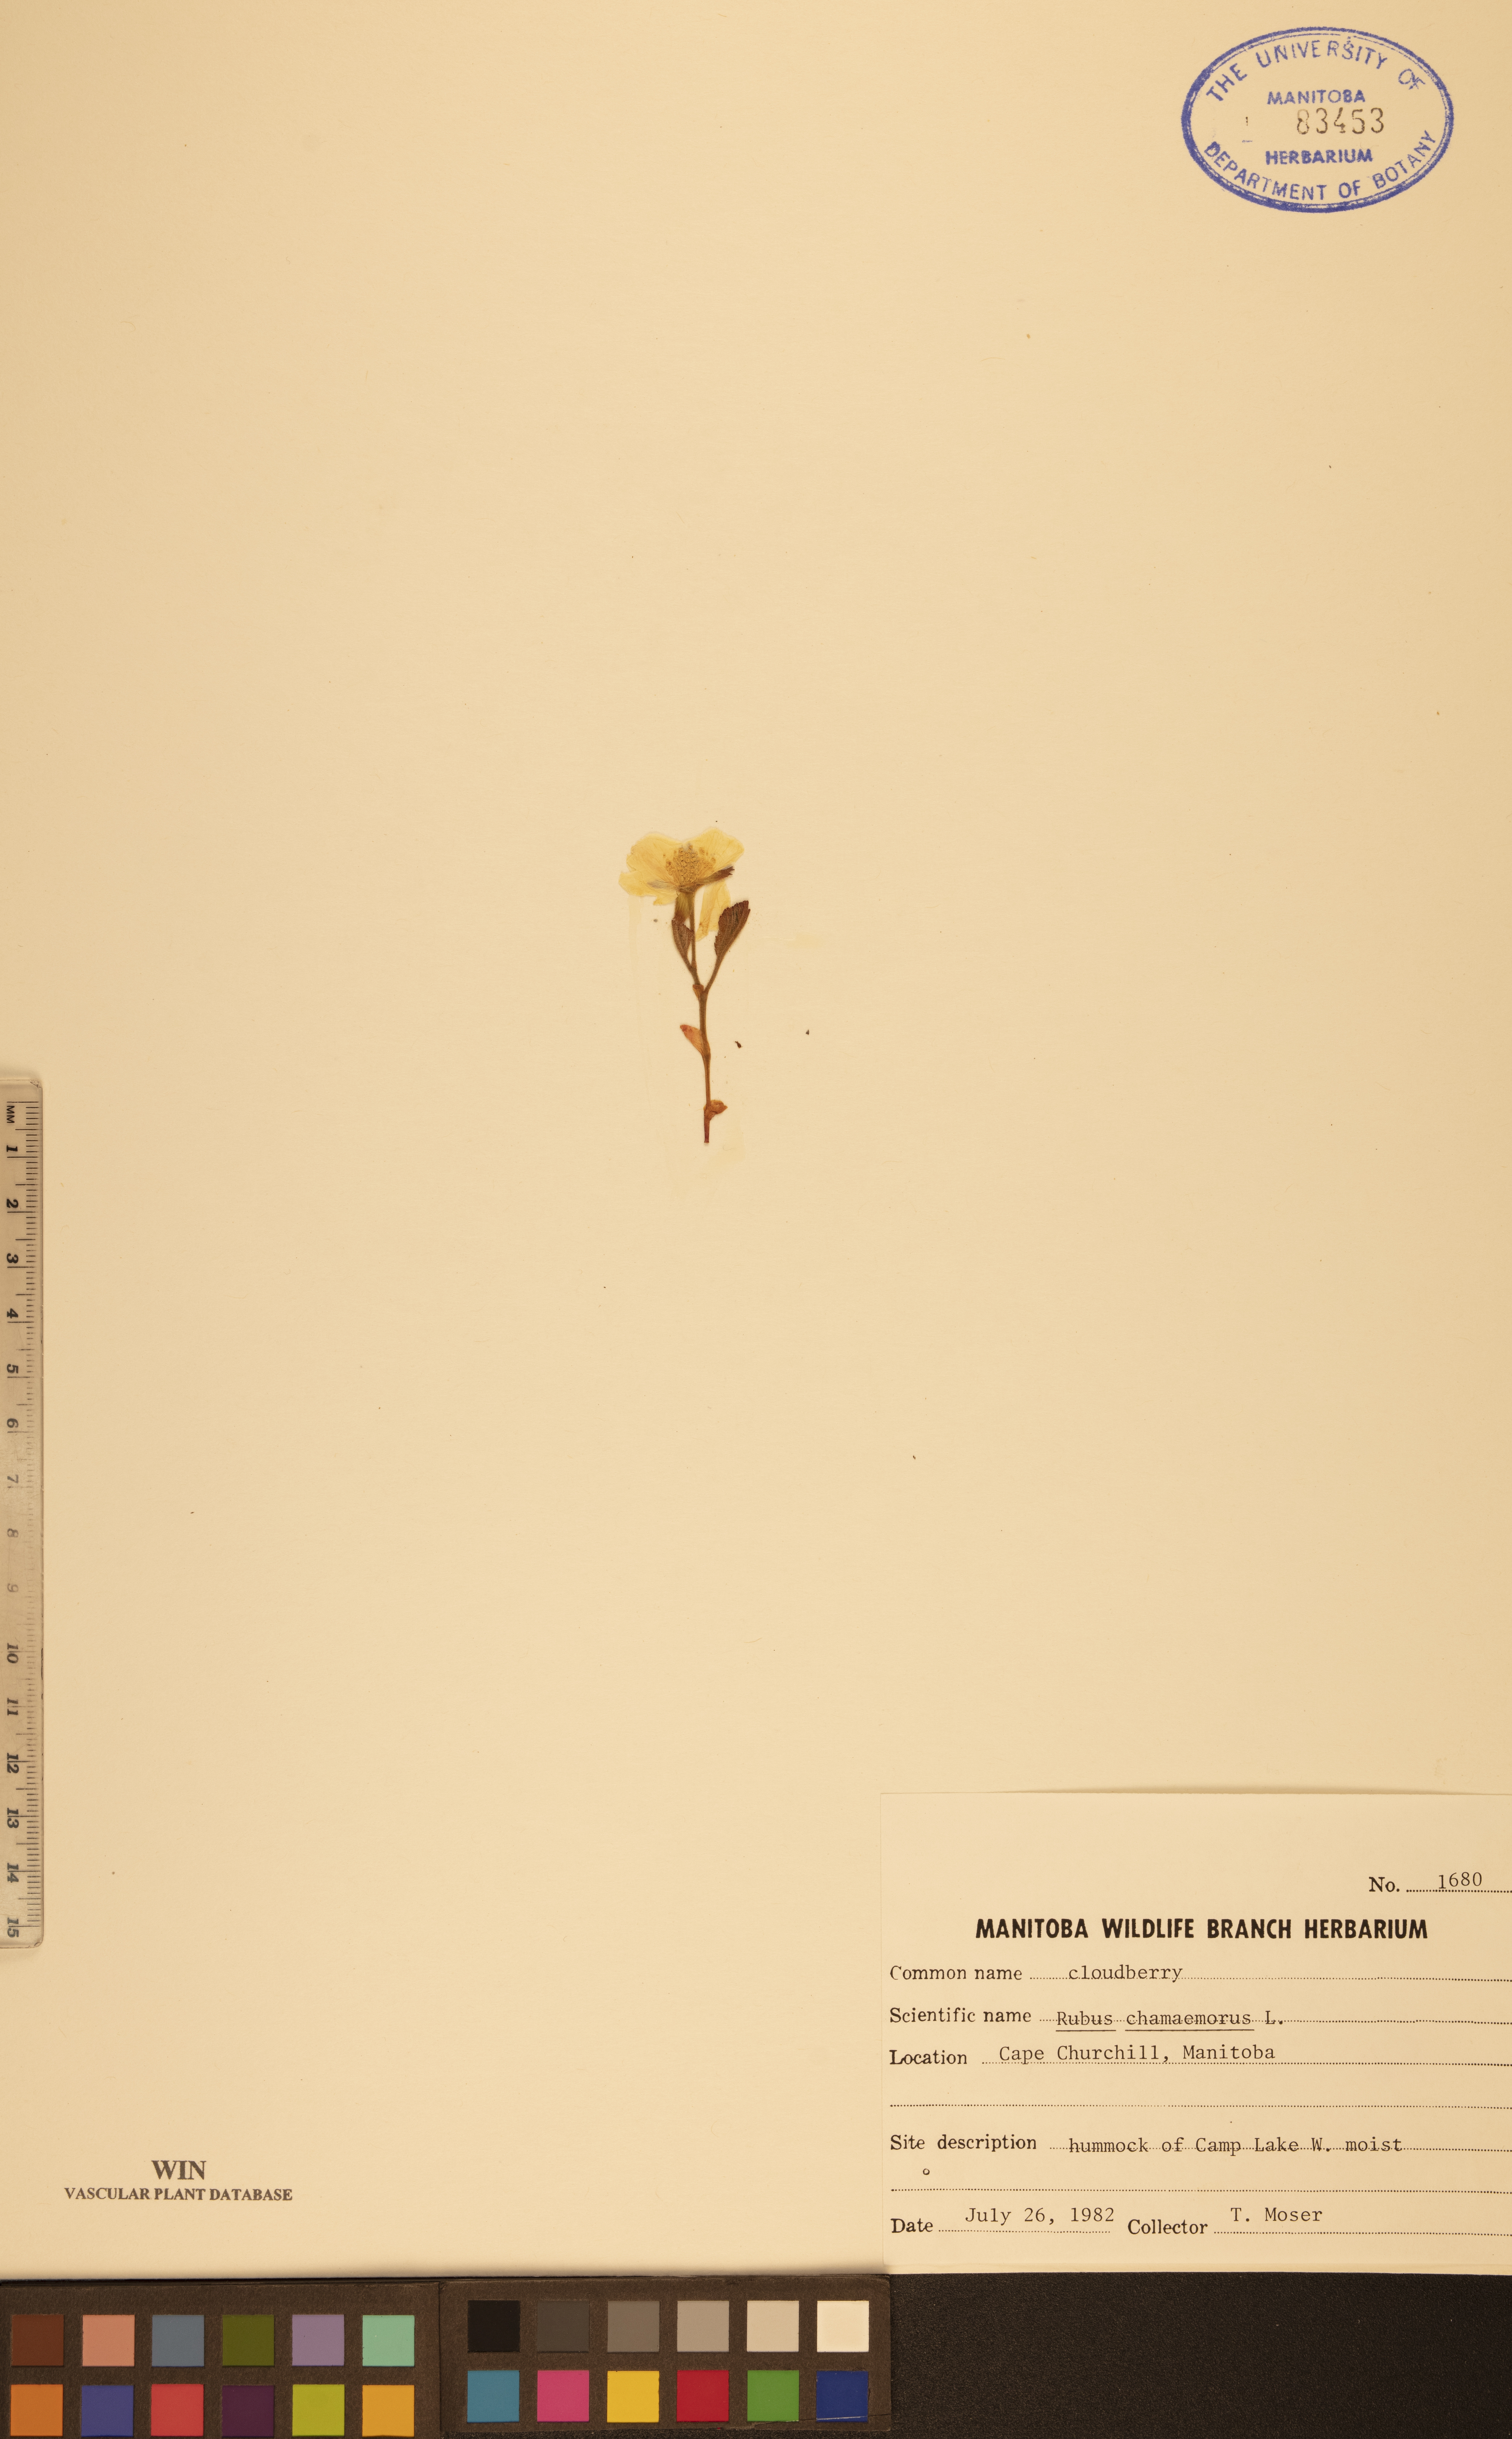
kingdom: Plantae
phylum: Tracheophyta
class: Magnoliopsida
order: Rosales
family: Rosaceae
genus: Rubus
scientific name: Rubus chamaemorus
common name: Cloudberry
